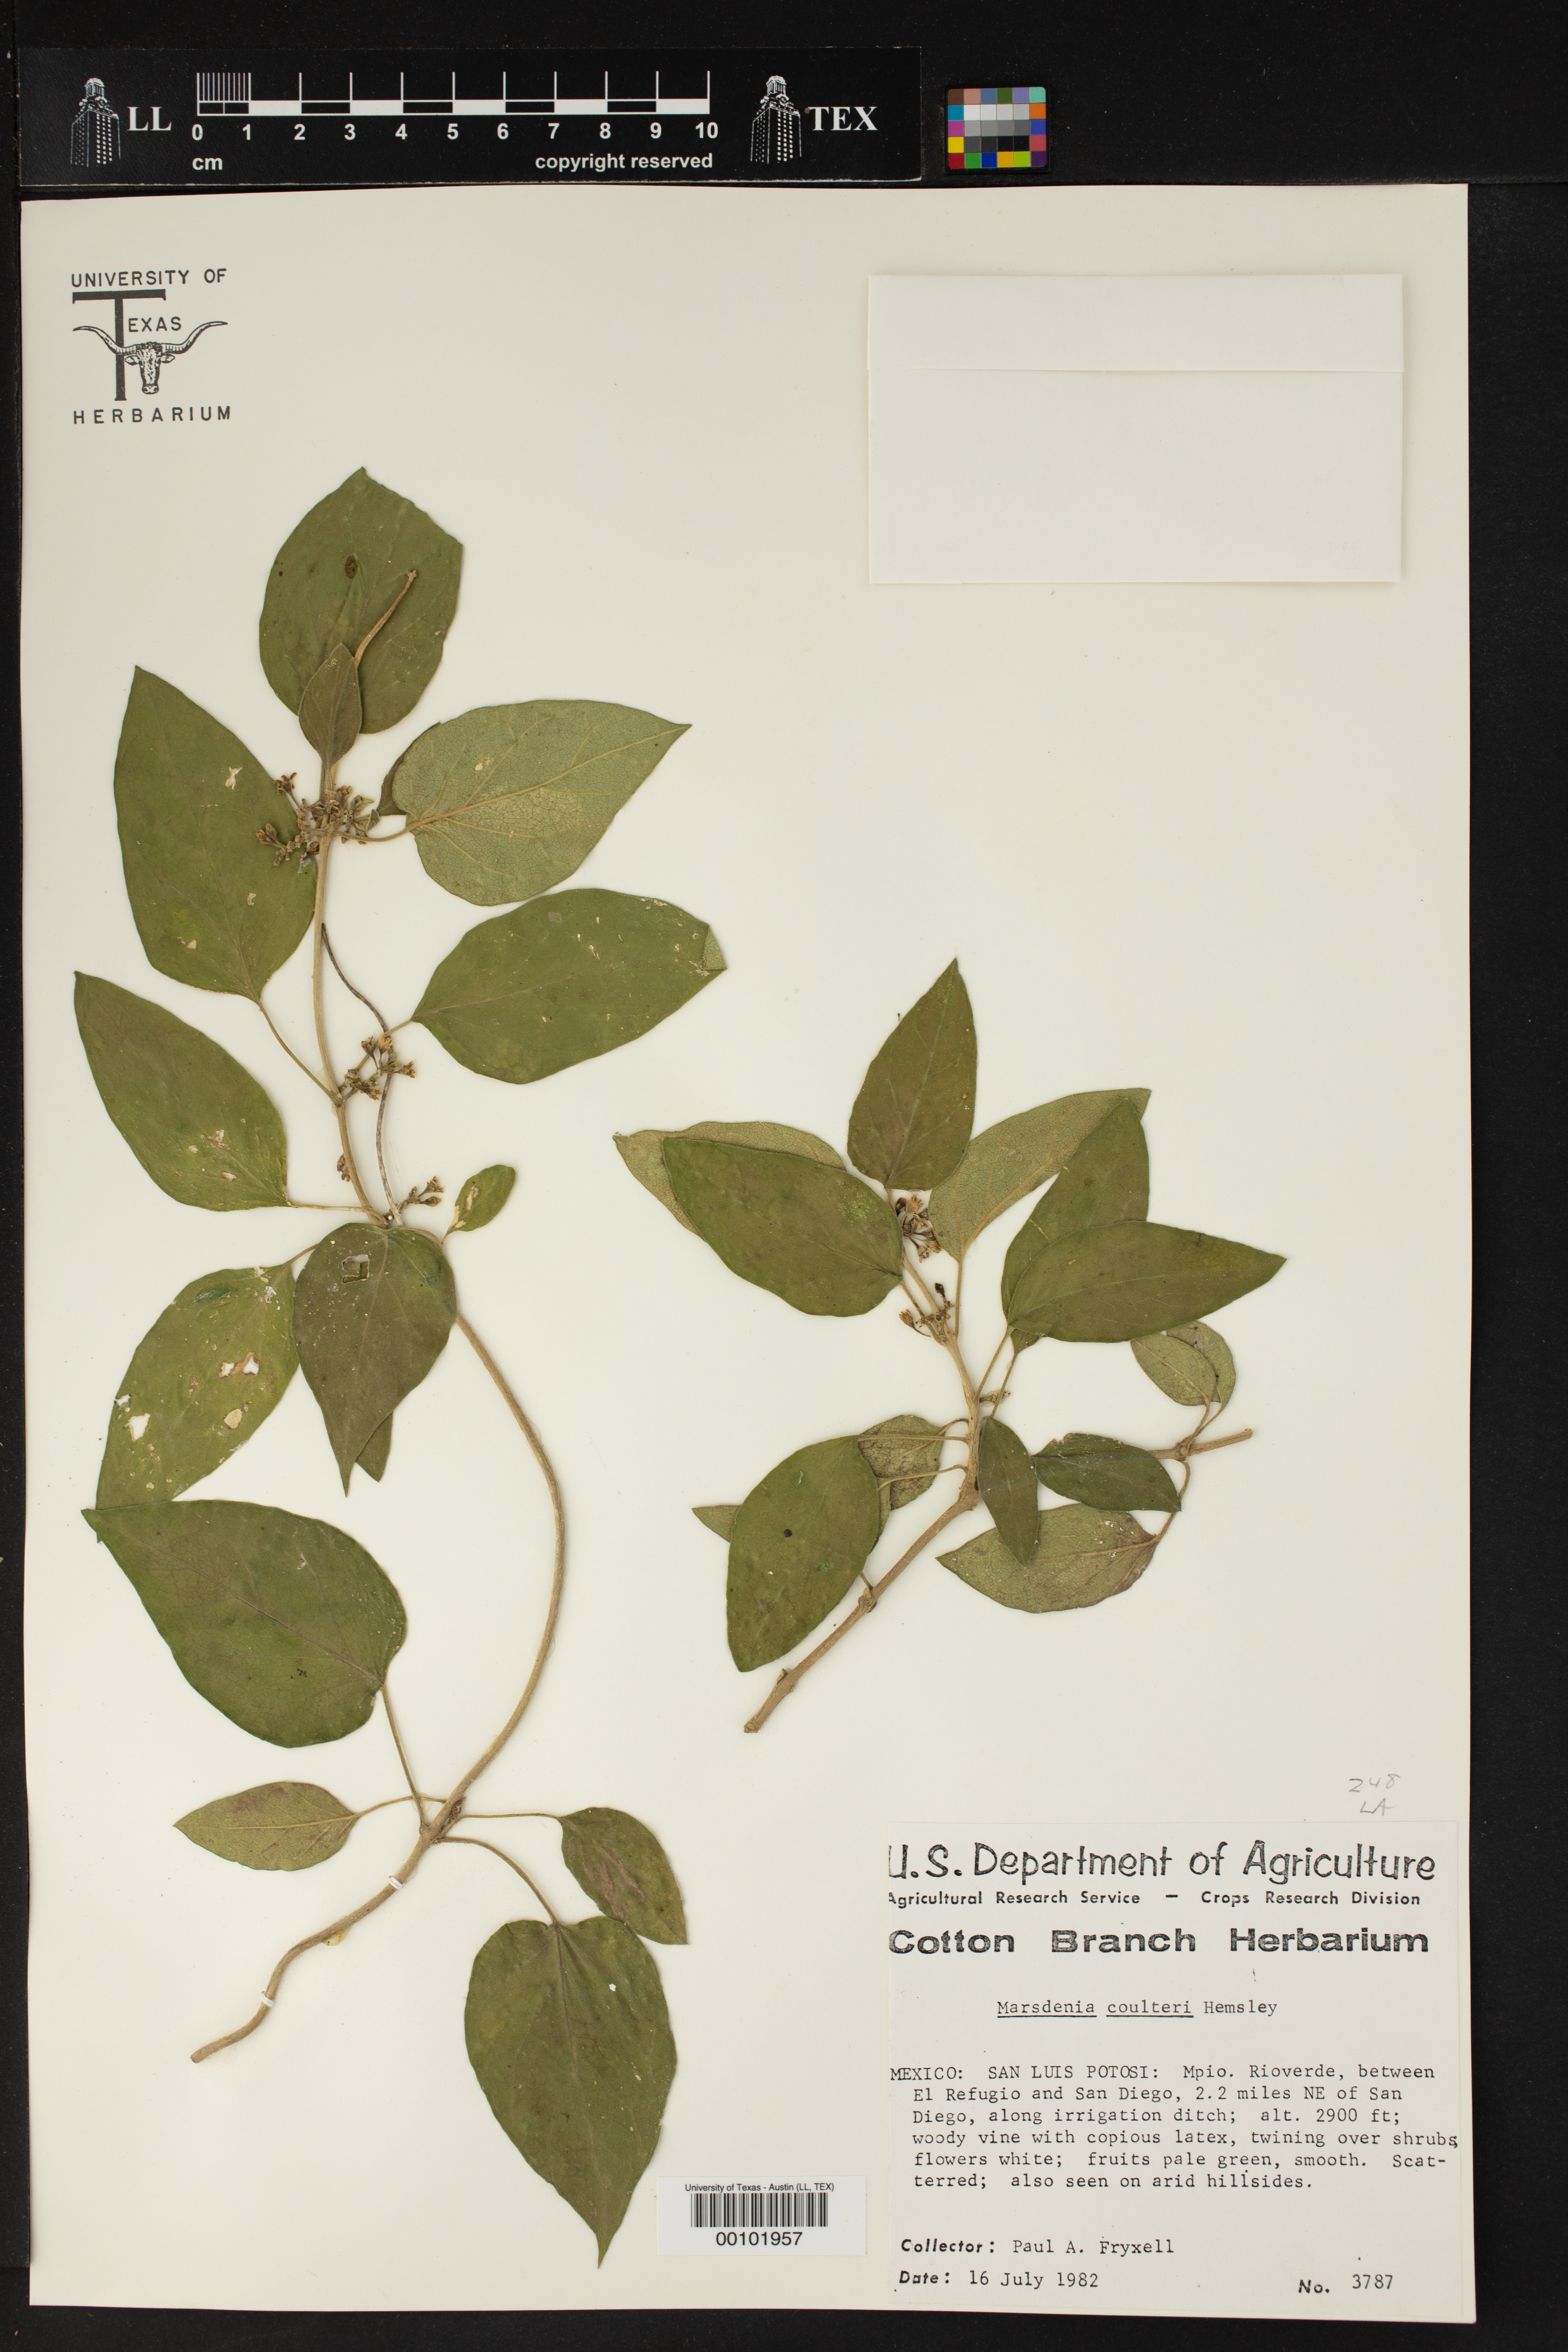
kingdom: Plantae
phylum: Tracheophyta
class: Magnoliopsida
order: Gentianales
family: Apocynaceae
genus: Ruehssia
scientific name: Ruehssia coulteri
